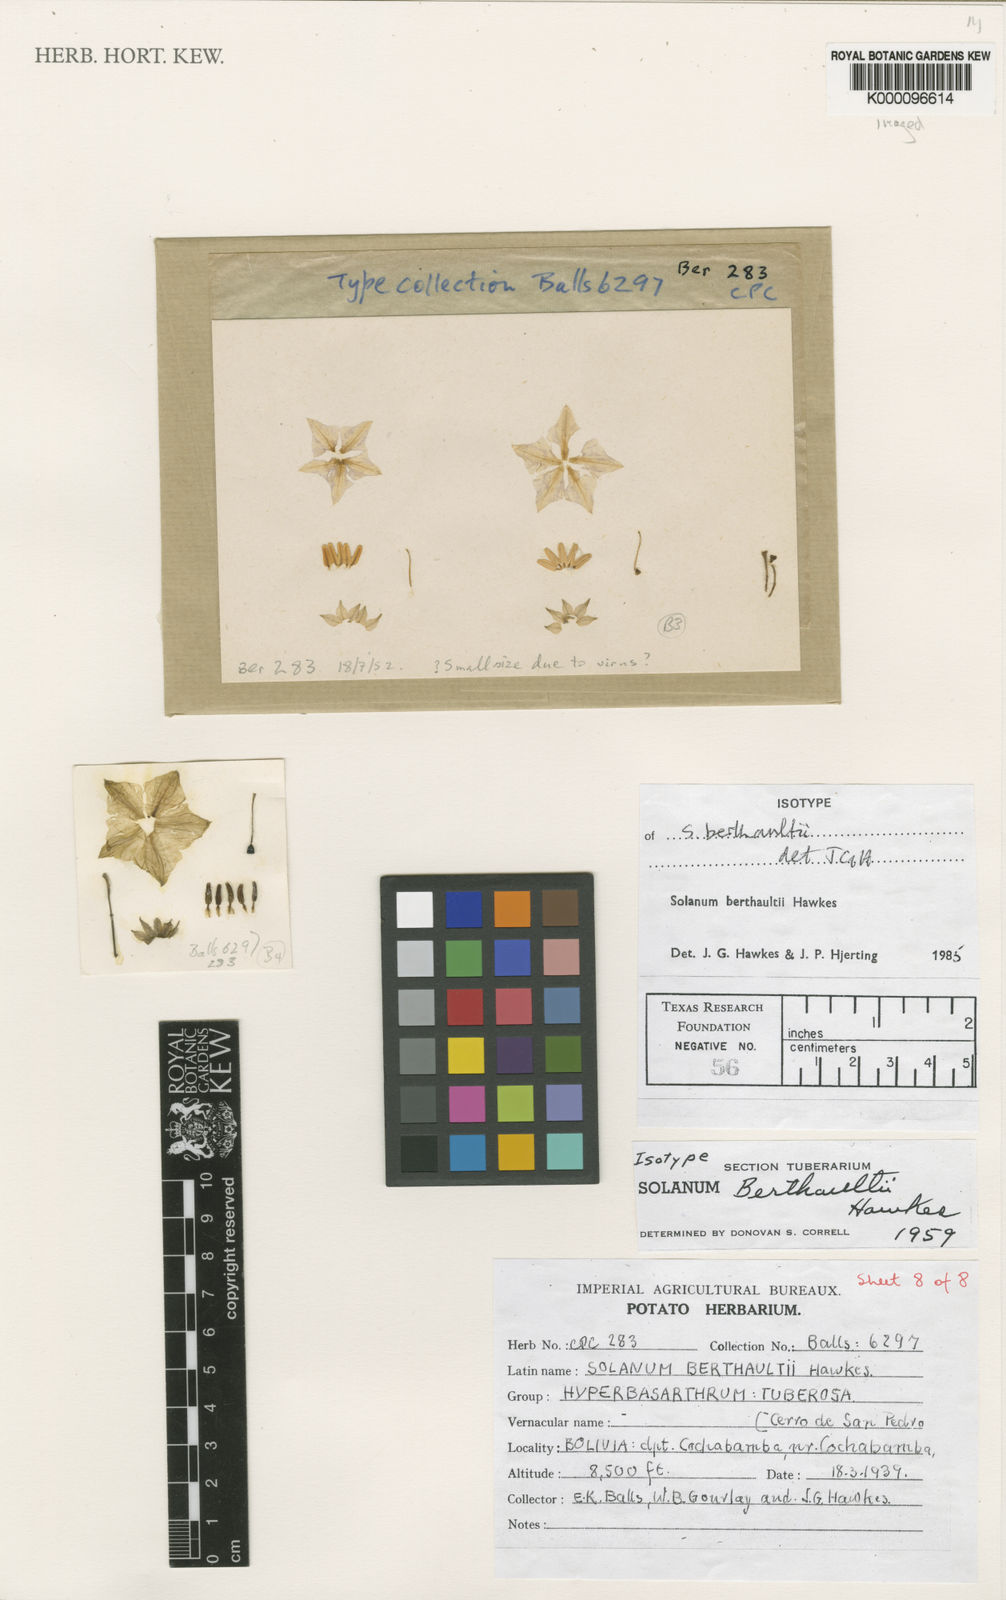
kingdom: Plantae
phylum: Tracheophyta
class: Magnoliopsida
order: Solanales
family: Solanaceae
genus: Solanum
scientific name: Solanum berthaultii
